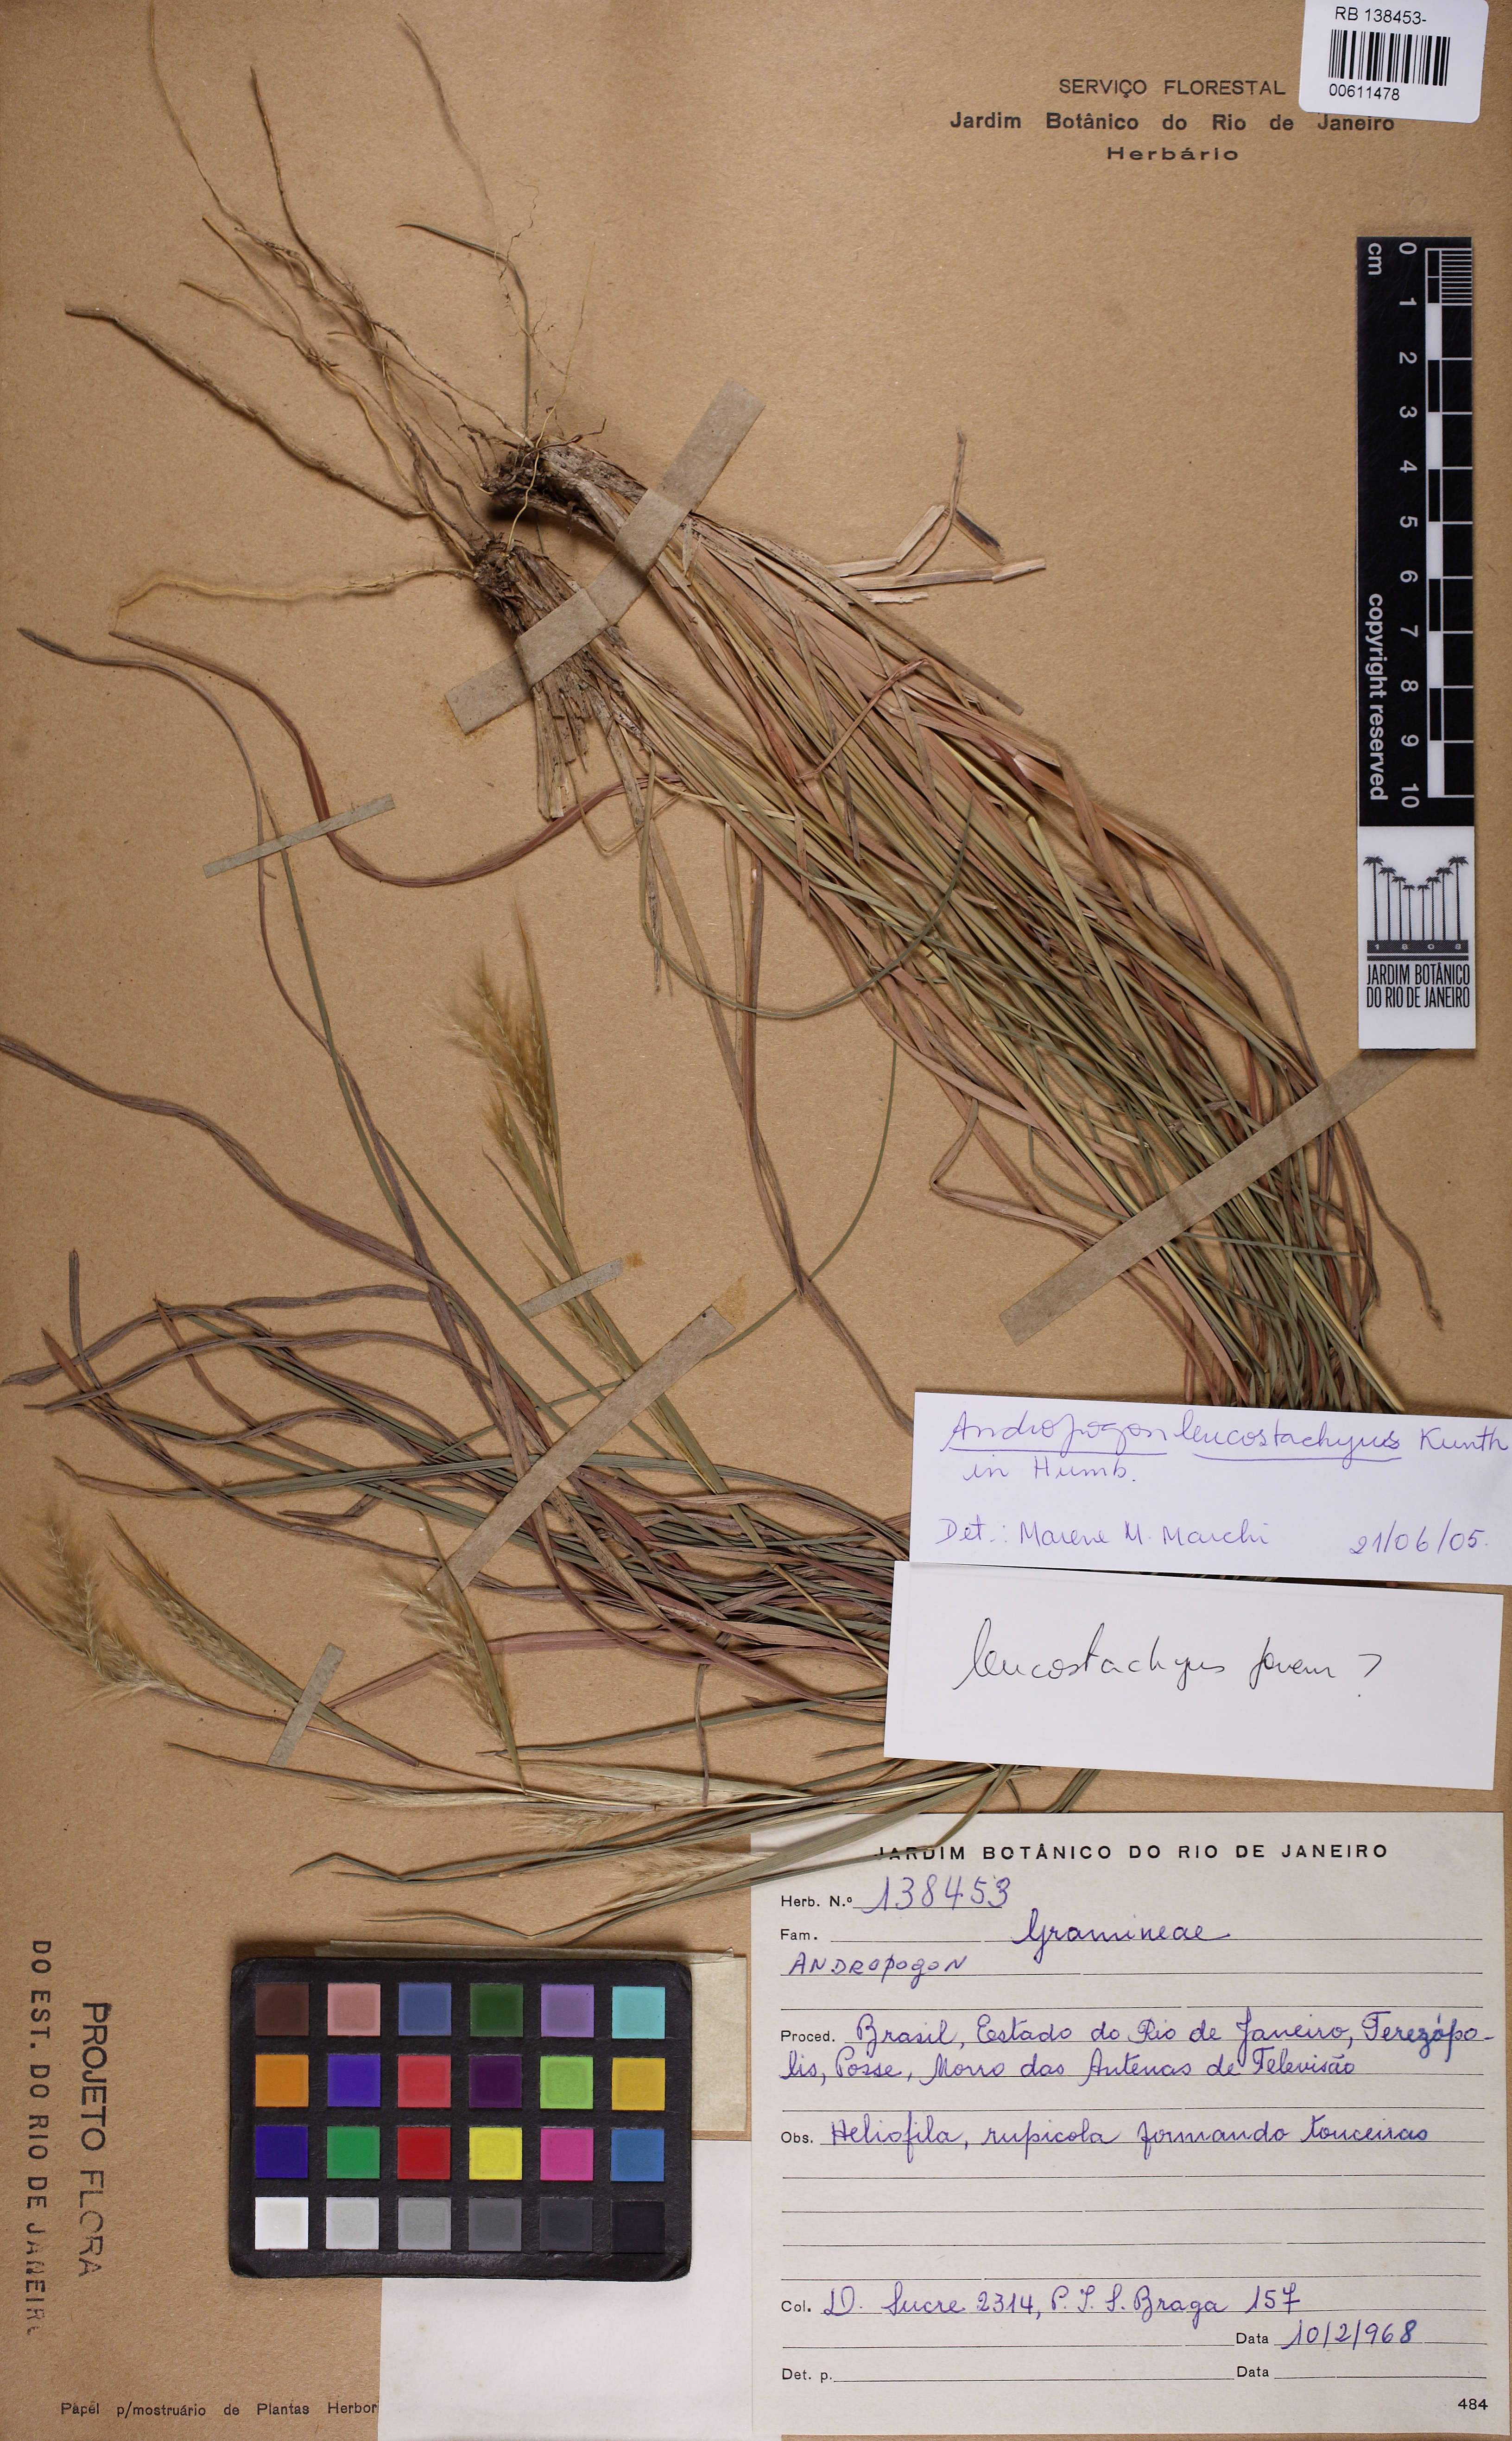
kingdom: Plantae
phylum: Tracheophyta
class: Liliopsida
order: Poales
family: Poaceae
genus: Andropogon
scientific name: Andropogon leucostachyus
